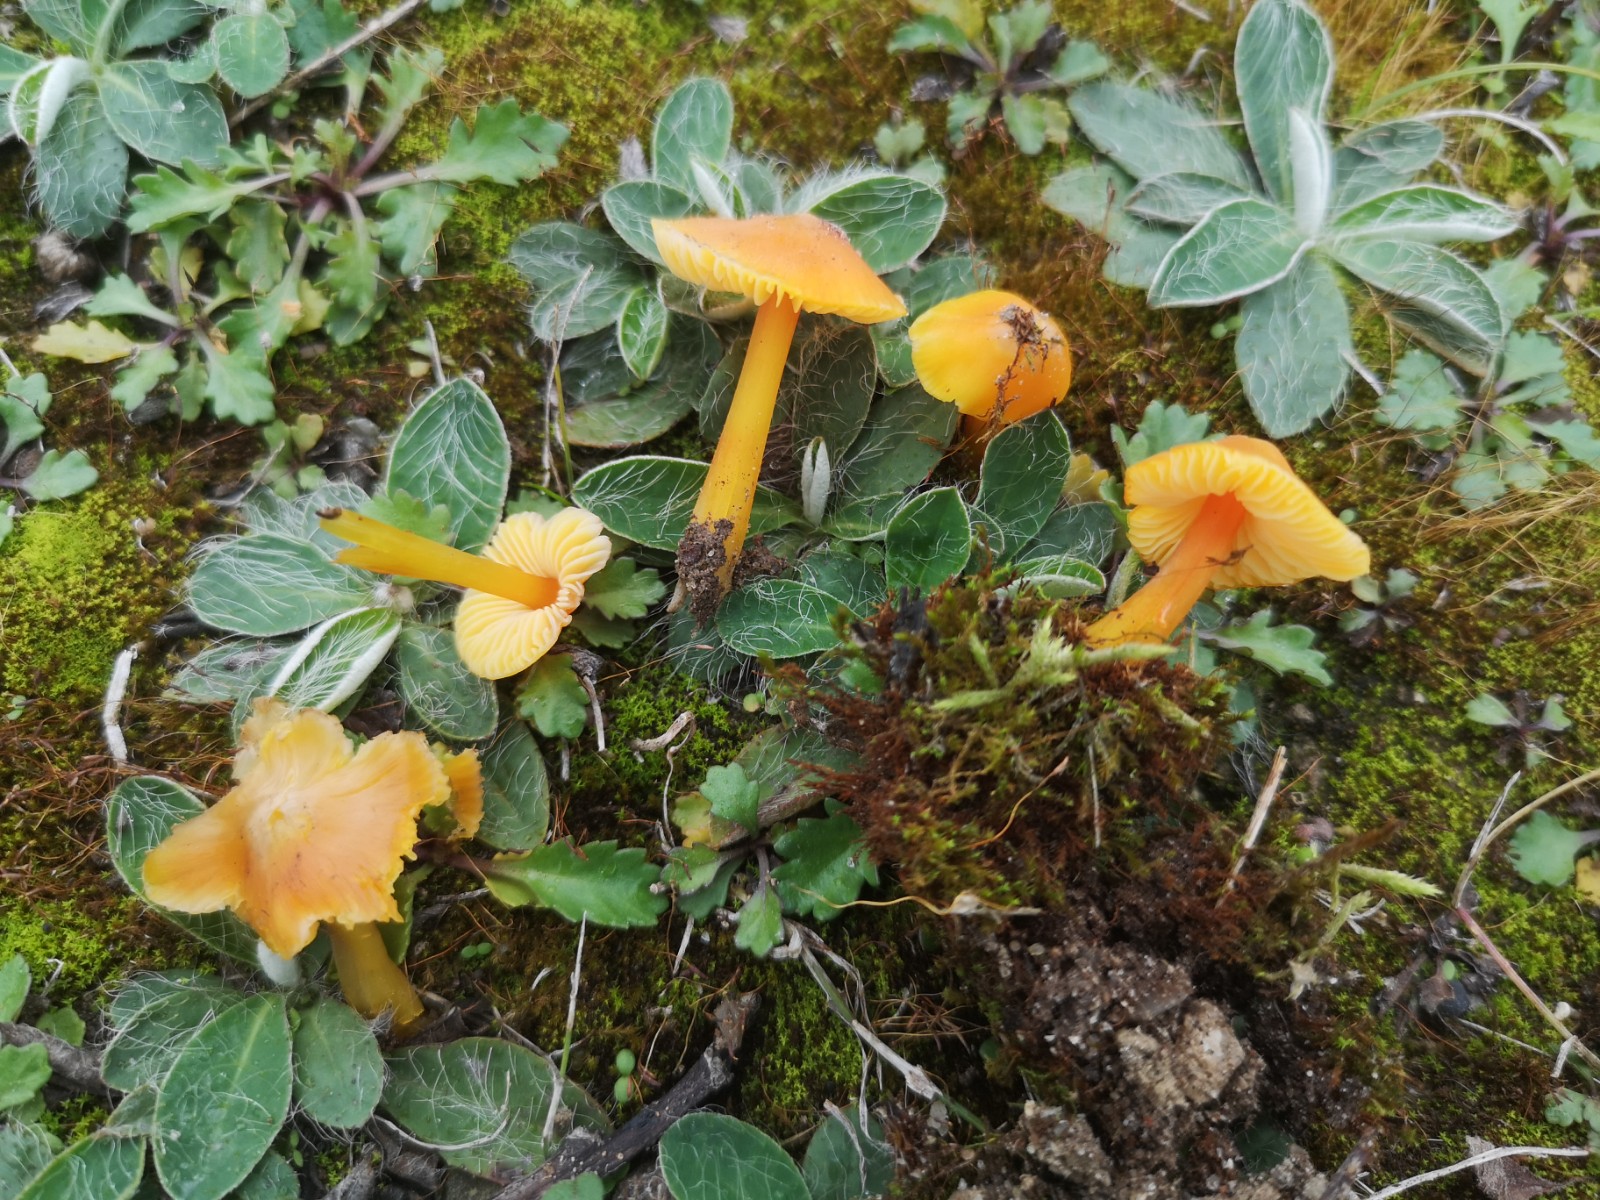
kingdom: Fungi
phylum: Basidiomycota
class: Agaricomycetes
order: Agaricales
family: Hygrophoraceae
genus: Hygrocybe
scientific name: Hygrocybe
